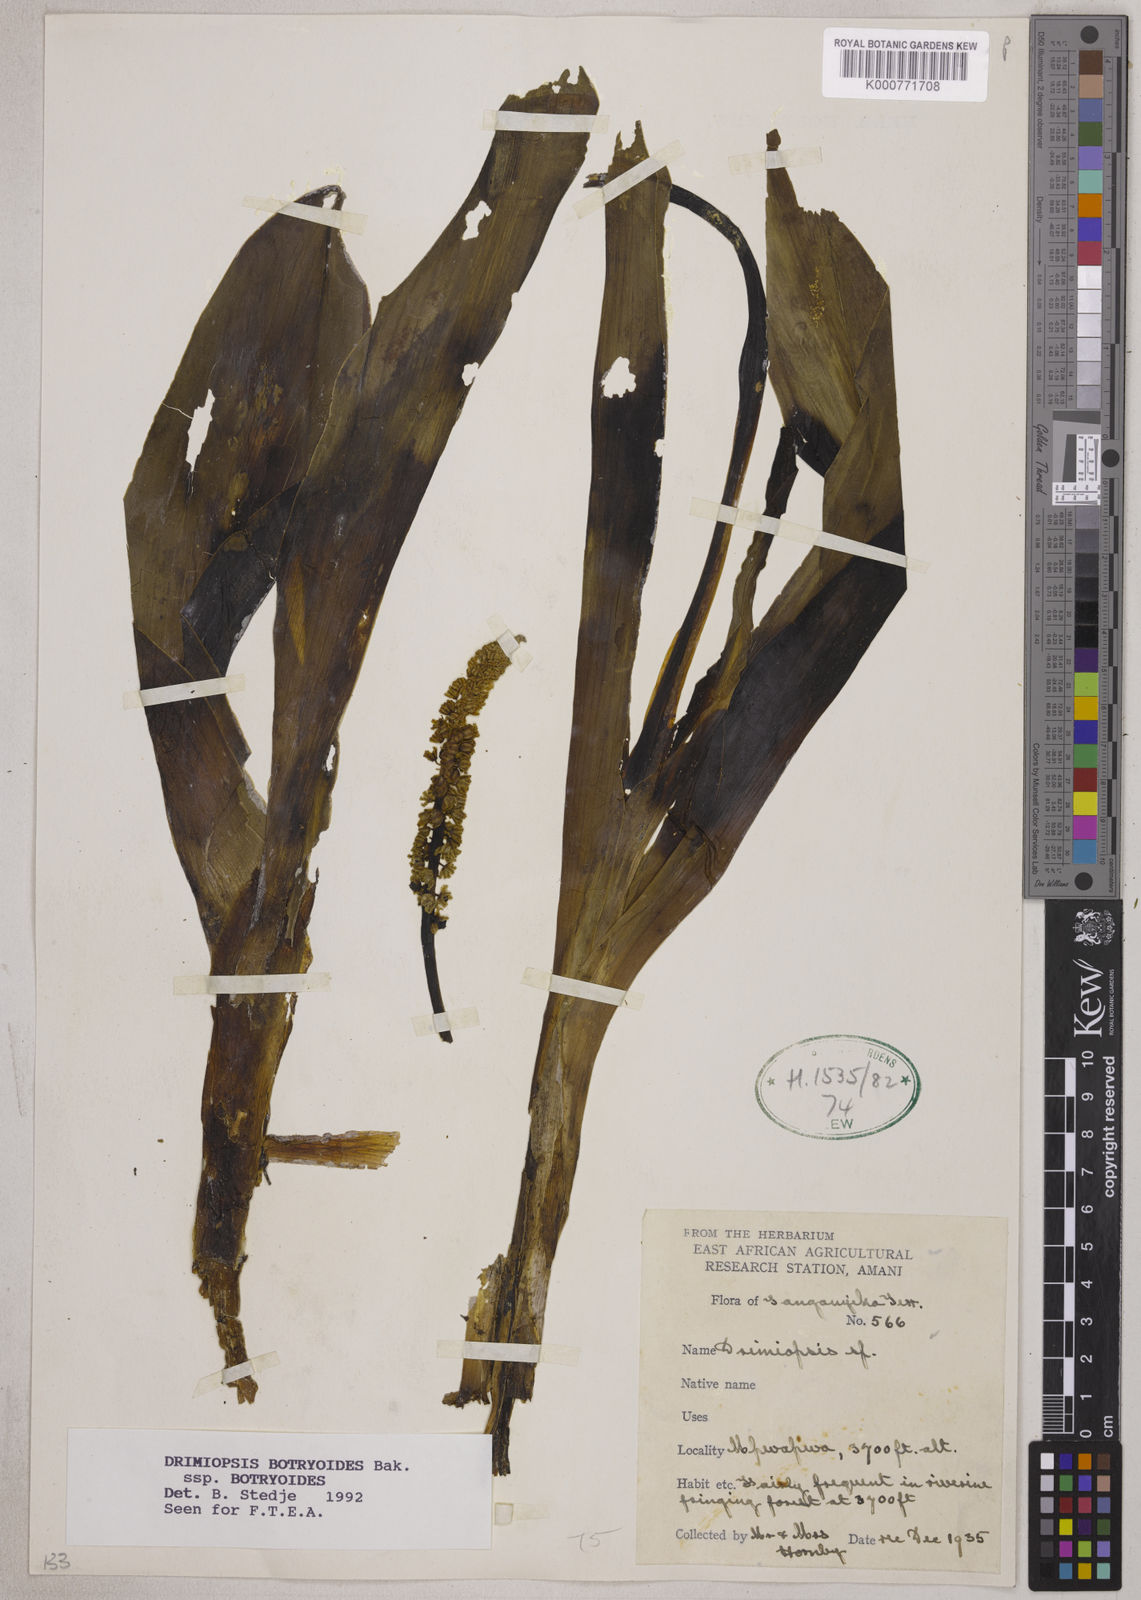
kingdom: Plantae
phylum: Tracheophyta
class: Liliopsida
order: Asparagales
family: Asparagaceae
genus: Drimiopsis
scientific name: Drimiopsis botryoides
